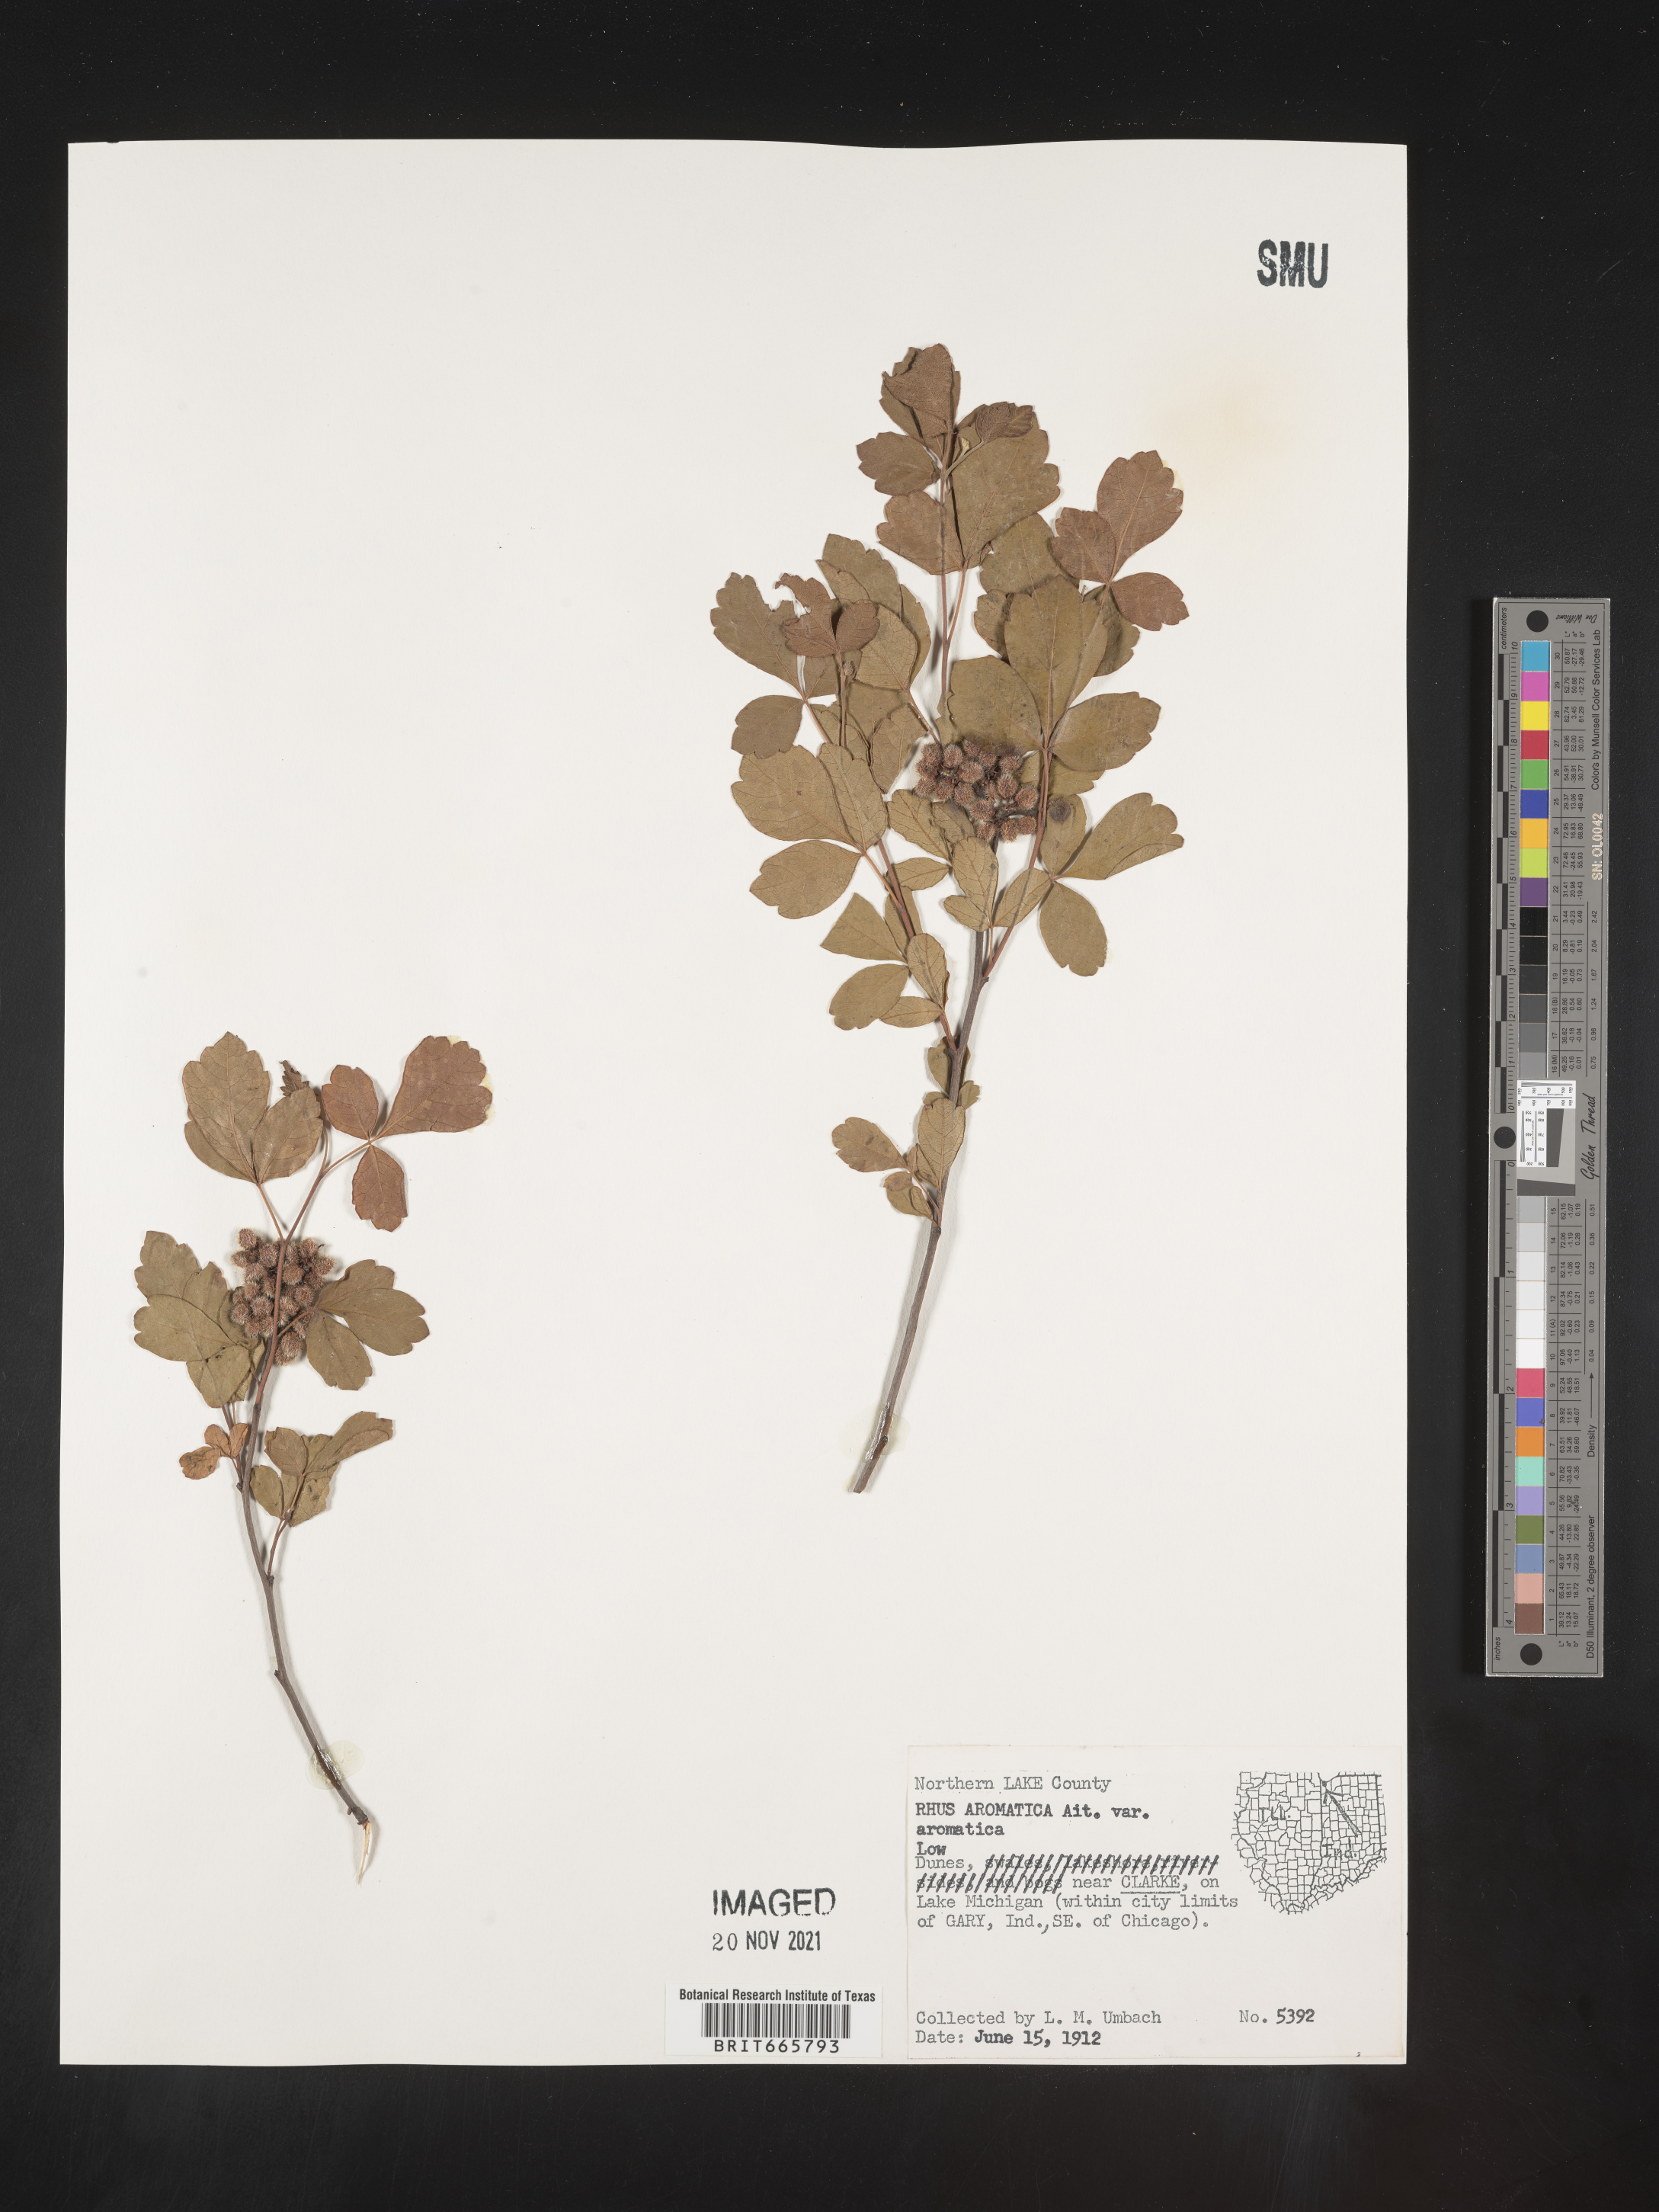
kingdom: Plantae
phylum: Tracheophyta
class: Magnoliopsida
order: Sapindales
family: Anacardiaceae
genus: Rhus
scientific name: Rhus aromatica
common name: Aromatic sumac
